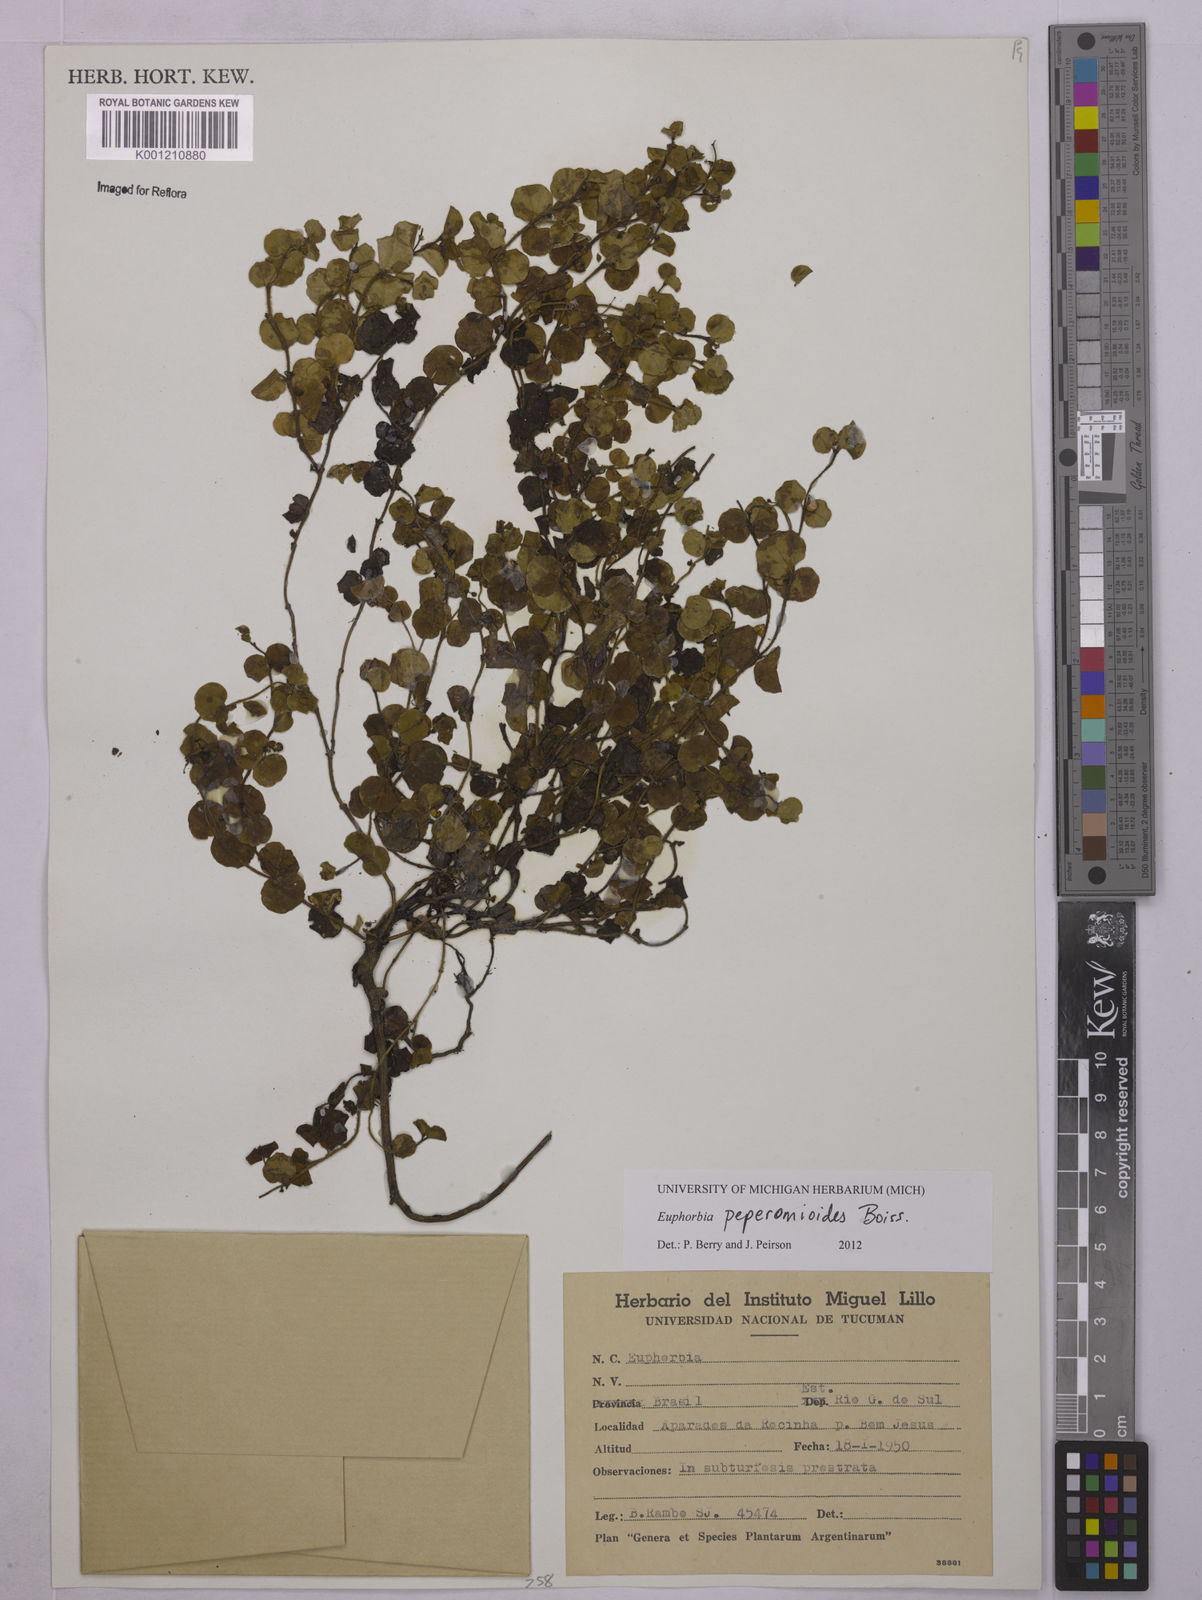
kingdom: Plantae
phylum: Tracheophyta
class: Magnoliopsida
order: Malpighiales
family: Euphorbiaceae
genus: Euphorbia
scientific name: Euphorbia peperomioides
